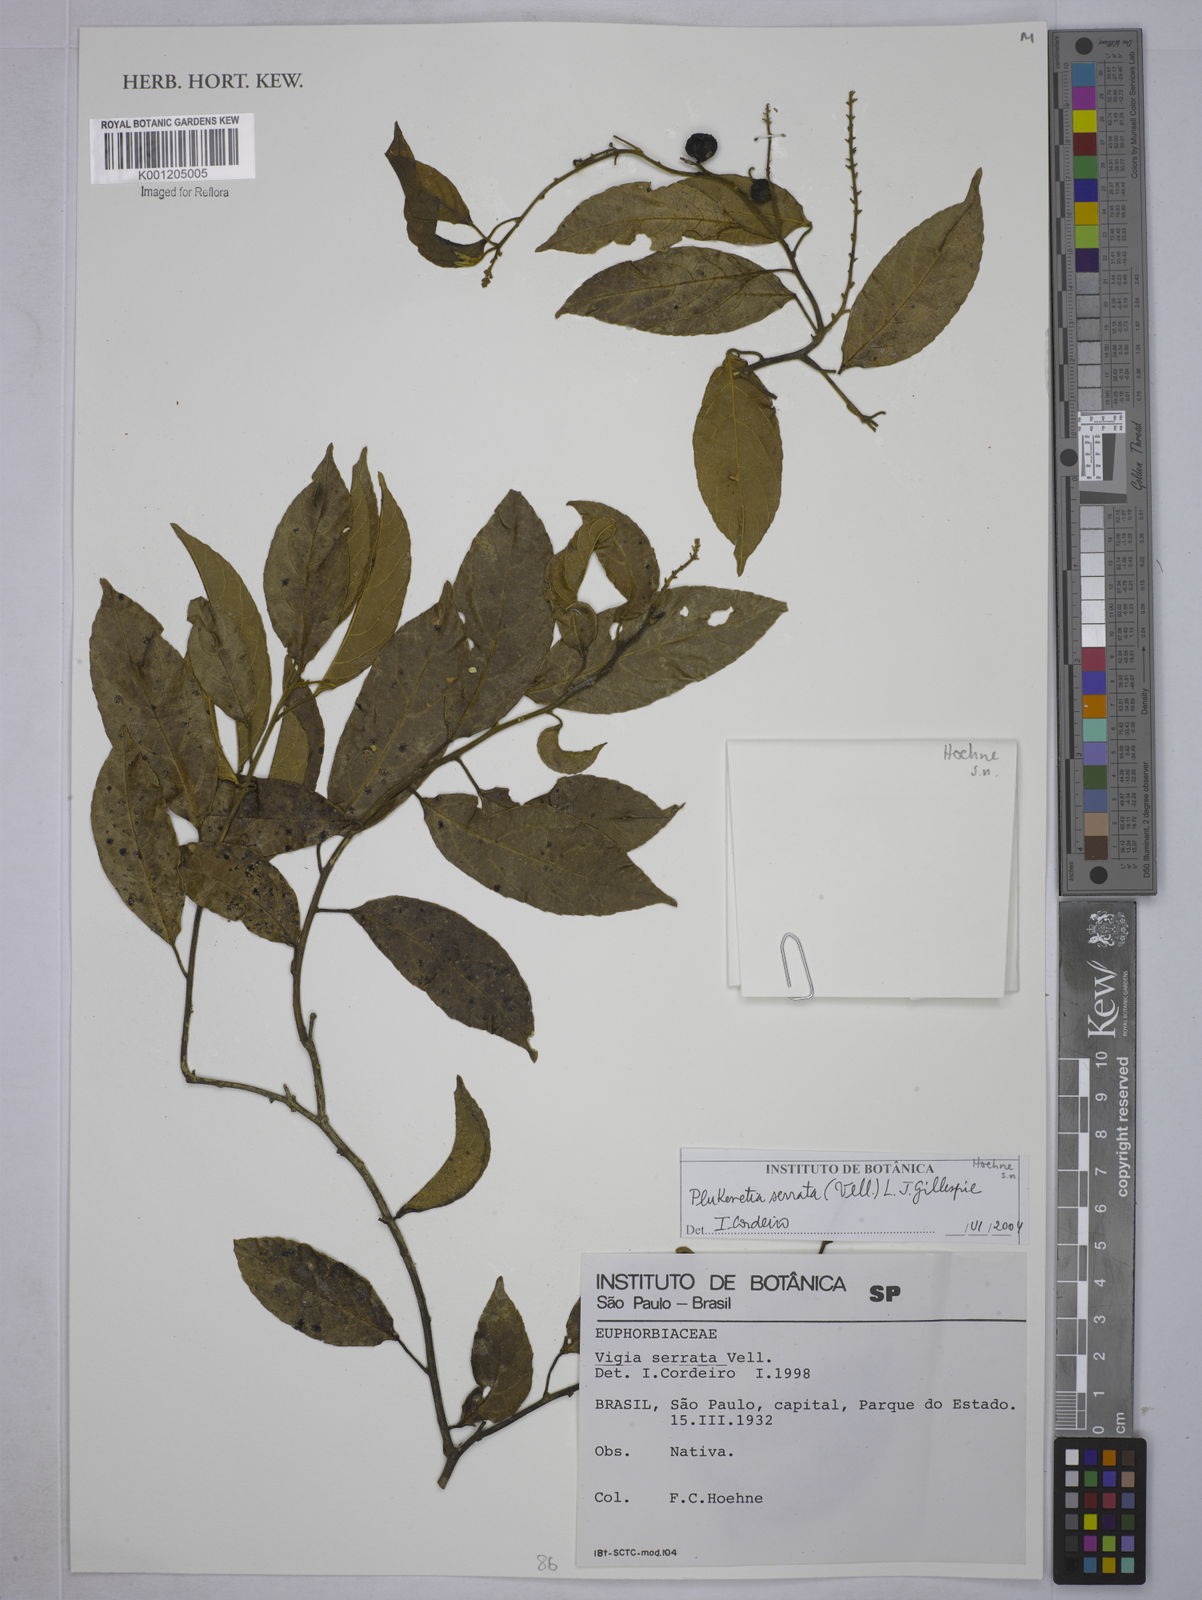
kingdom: Plantae
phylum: Tracheophyta
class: Magnoliopsida
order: Malpighiales
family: Euphorbiaceae
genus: Plukenetia
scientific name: Plukenetia serrata
